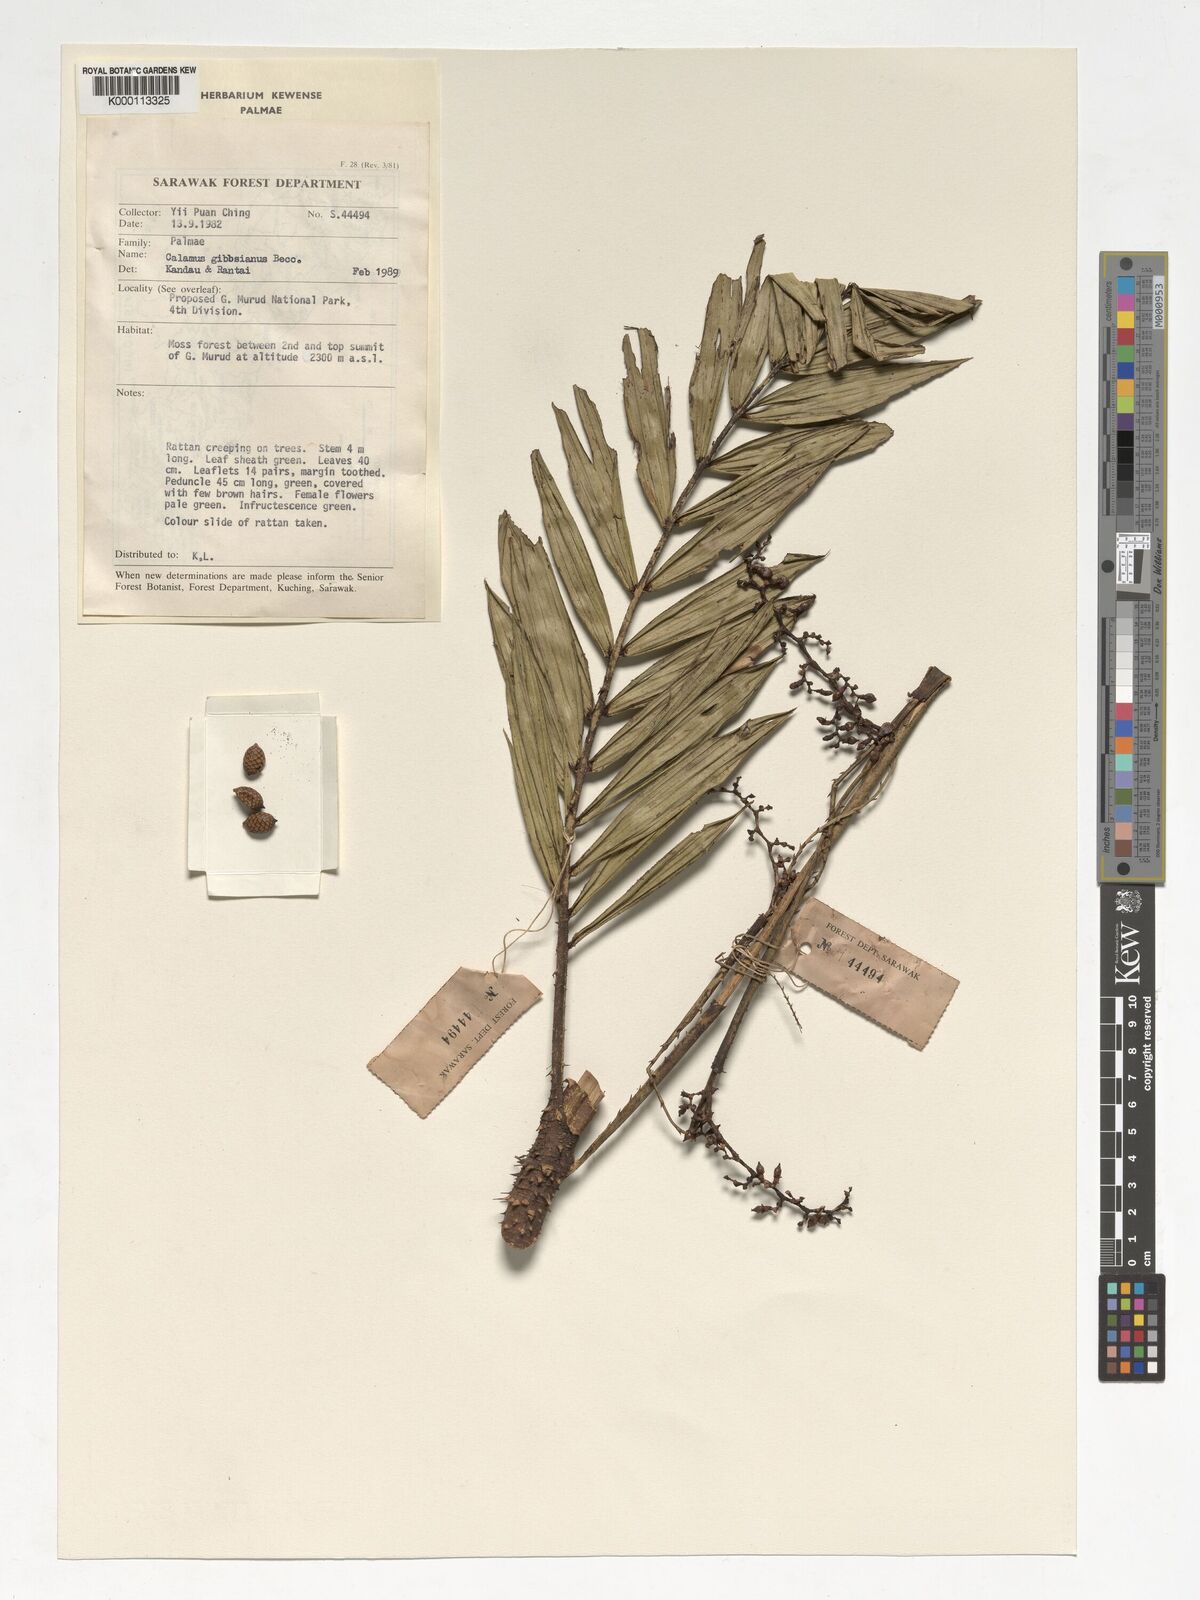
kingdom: Plantae
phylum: Tracheophyta
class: Liliopsida
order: Arecales
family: Arecaceae
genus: Calamus
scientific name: Calamus gibbsianus
